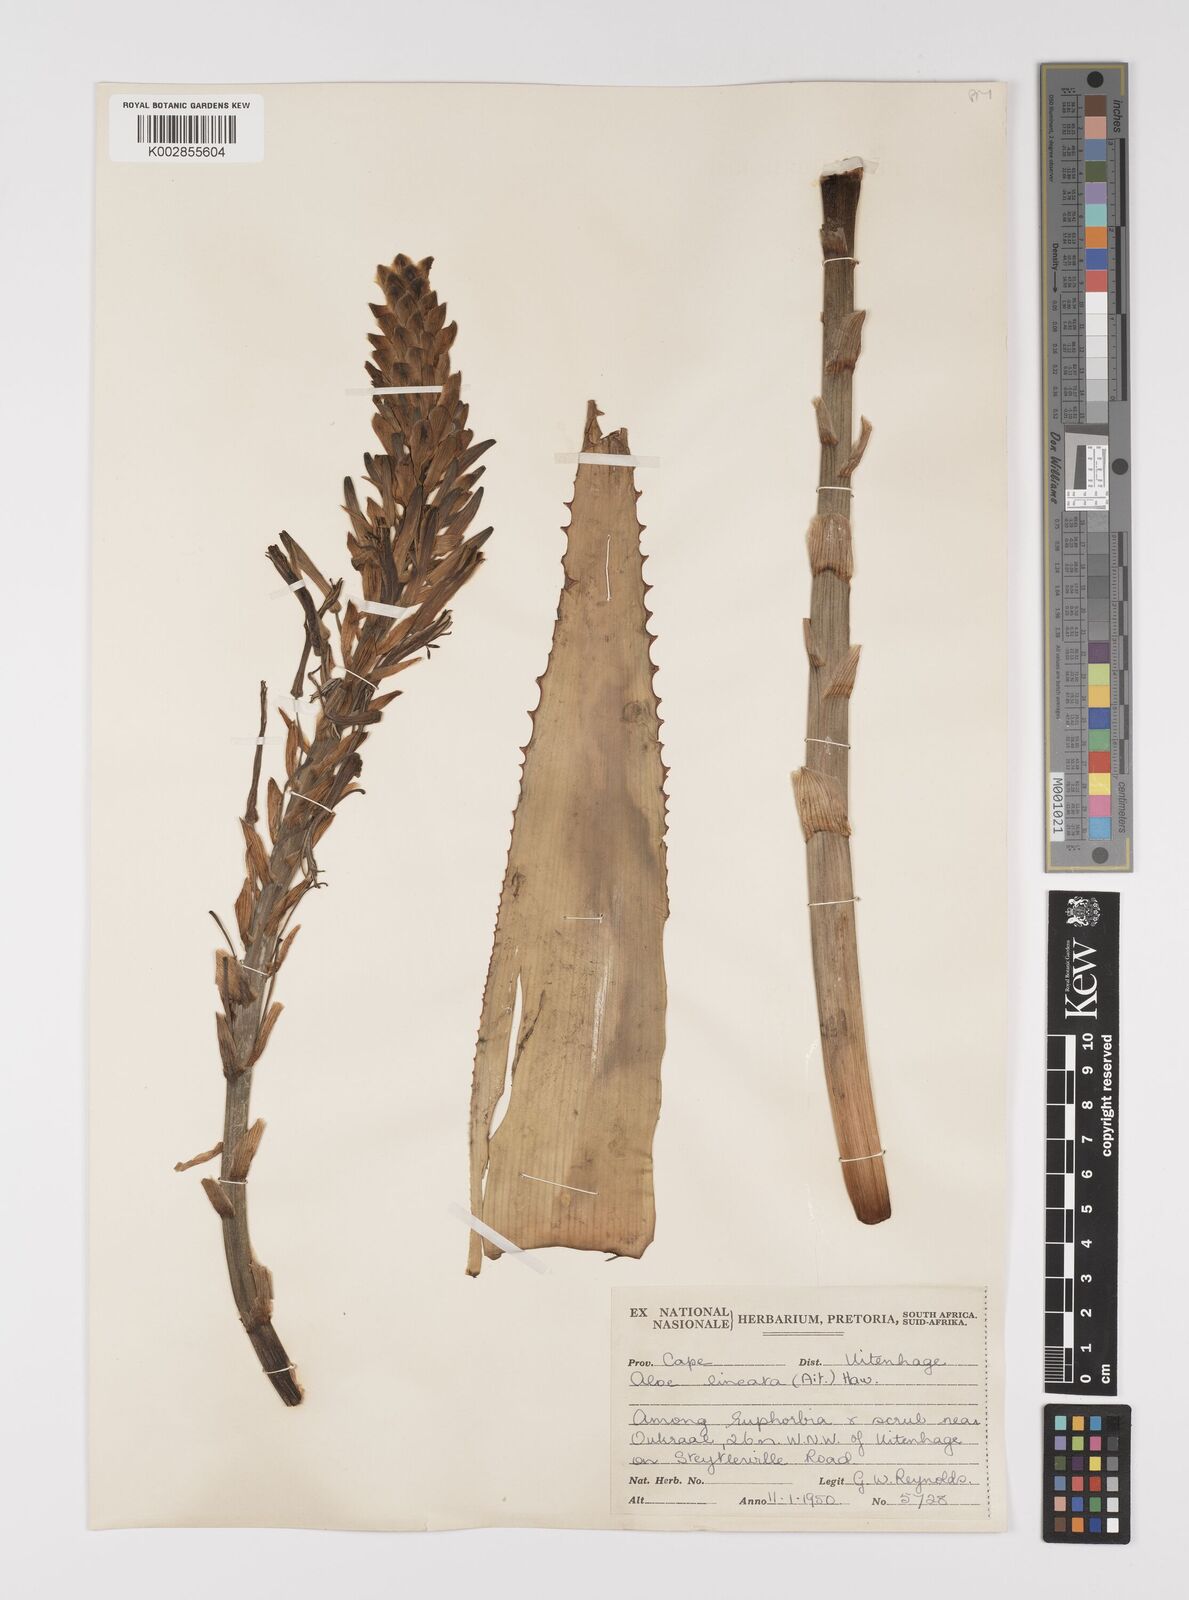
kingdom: Plantae
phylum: Tracheophyta
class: Liliopsida
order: Asparagales
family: Asphodelaceae
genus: Aloe
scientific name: Aloe lineata
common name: Lined red-spined aloe
